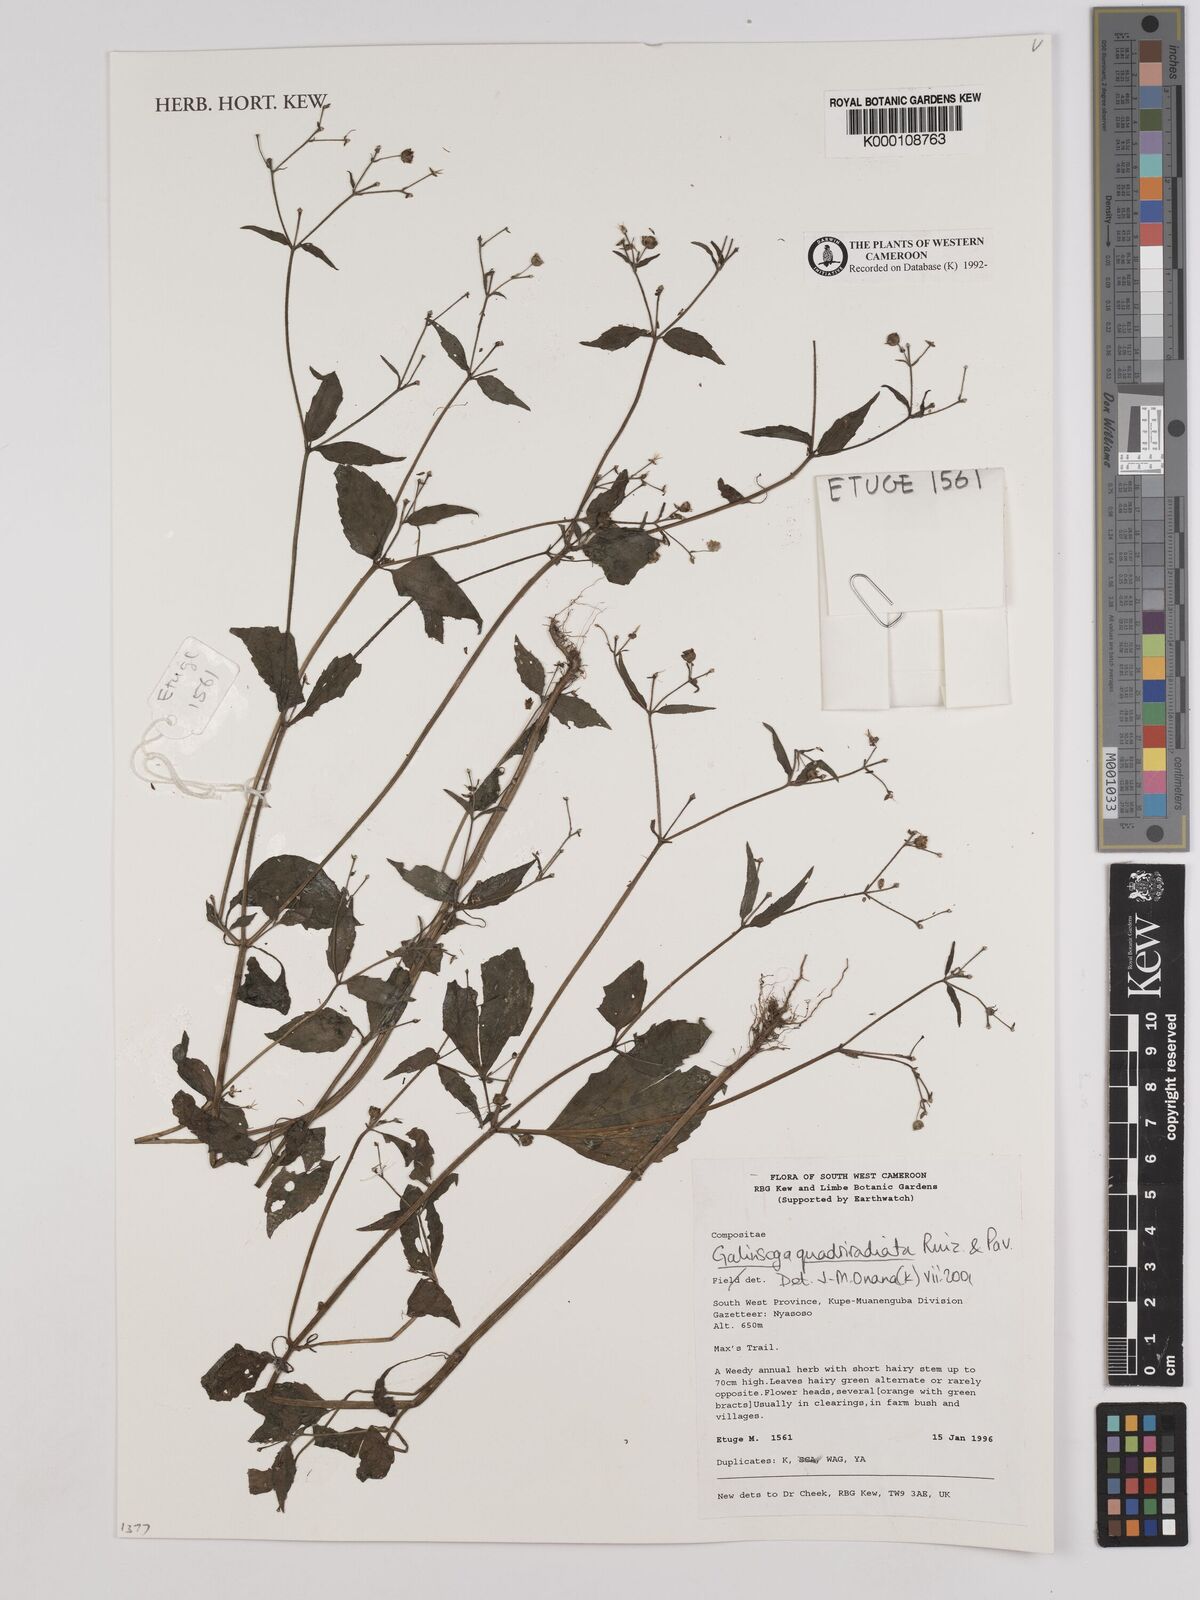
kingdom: Plantae
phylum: Tracheophyta
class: Magnoliopsida
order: Asterales
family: Asteraceae
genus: Galinsoga
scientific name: Galinsoga quadriradiata
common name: Shaggy soldier
